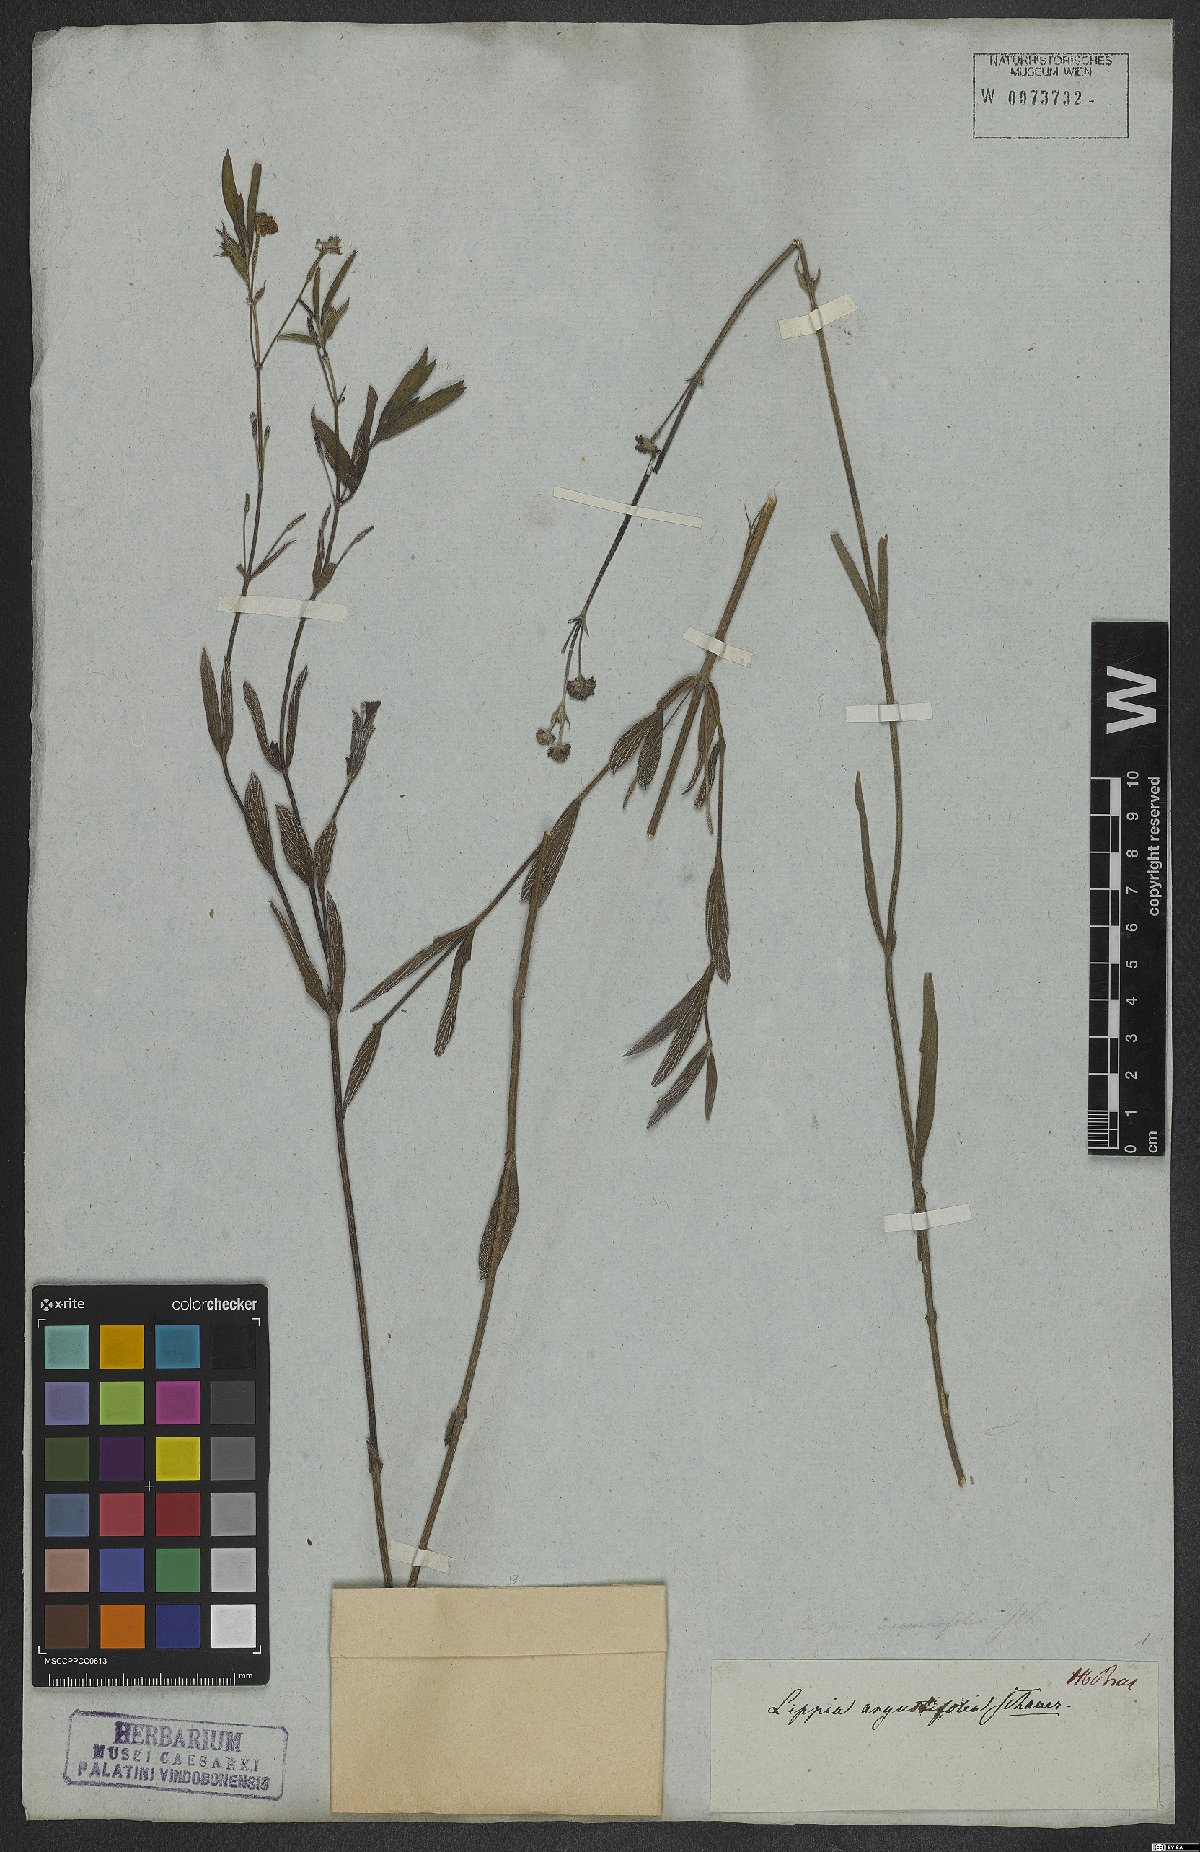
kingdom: Plantae
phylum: Tracheophyta
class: Magnoliopsida
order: Lamiales
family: Verbenaceae
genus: Lippia
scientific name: Lippia angustifolia
